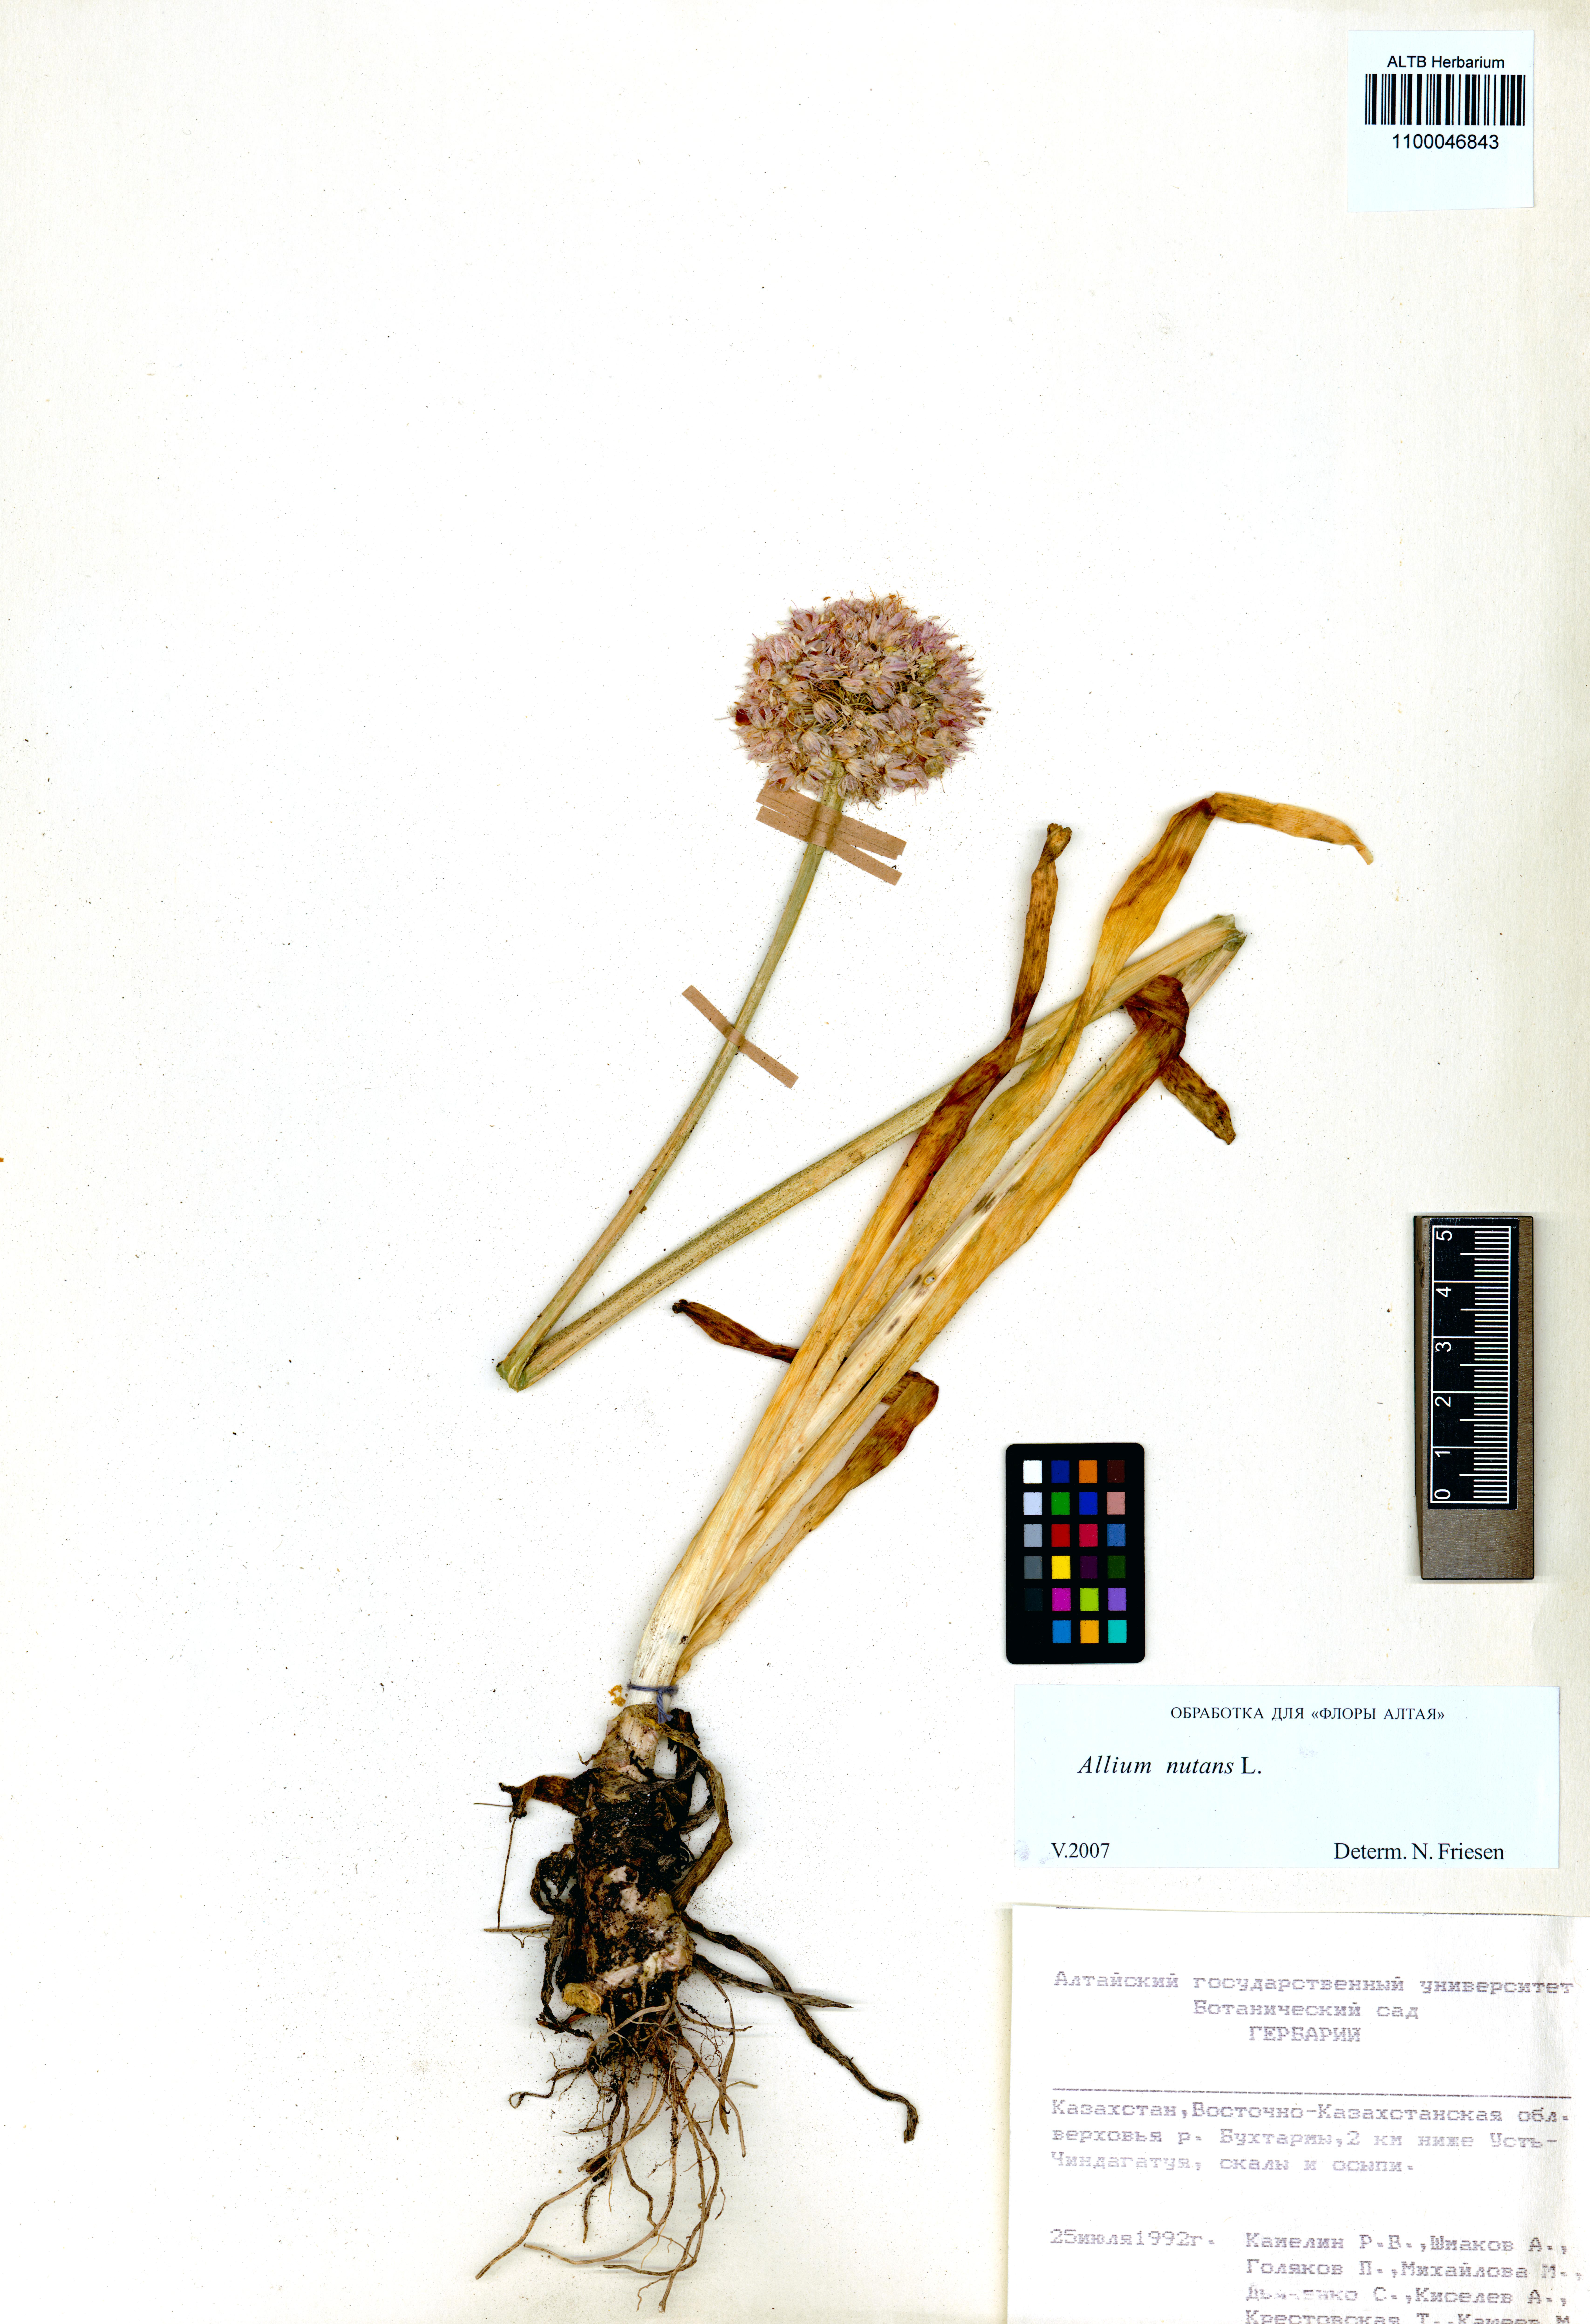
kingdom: Plantae
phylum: Tracheophyta
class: Liliopsida
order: Asparagales
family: Amaryllidaceae
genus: Allium
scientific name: Allium nutans
